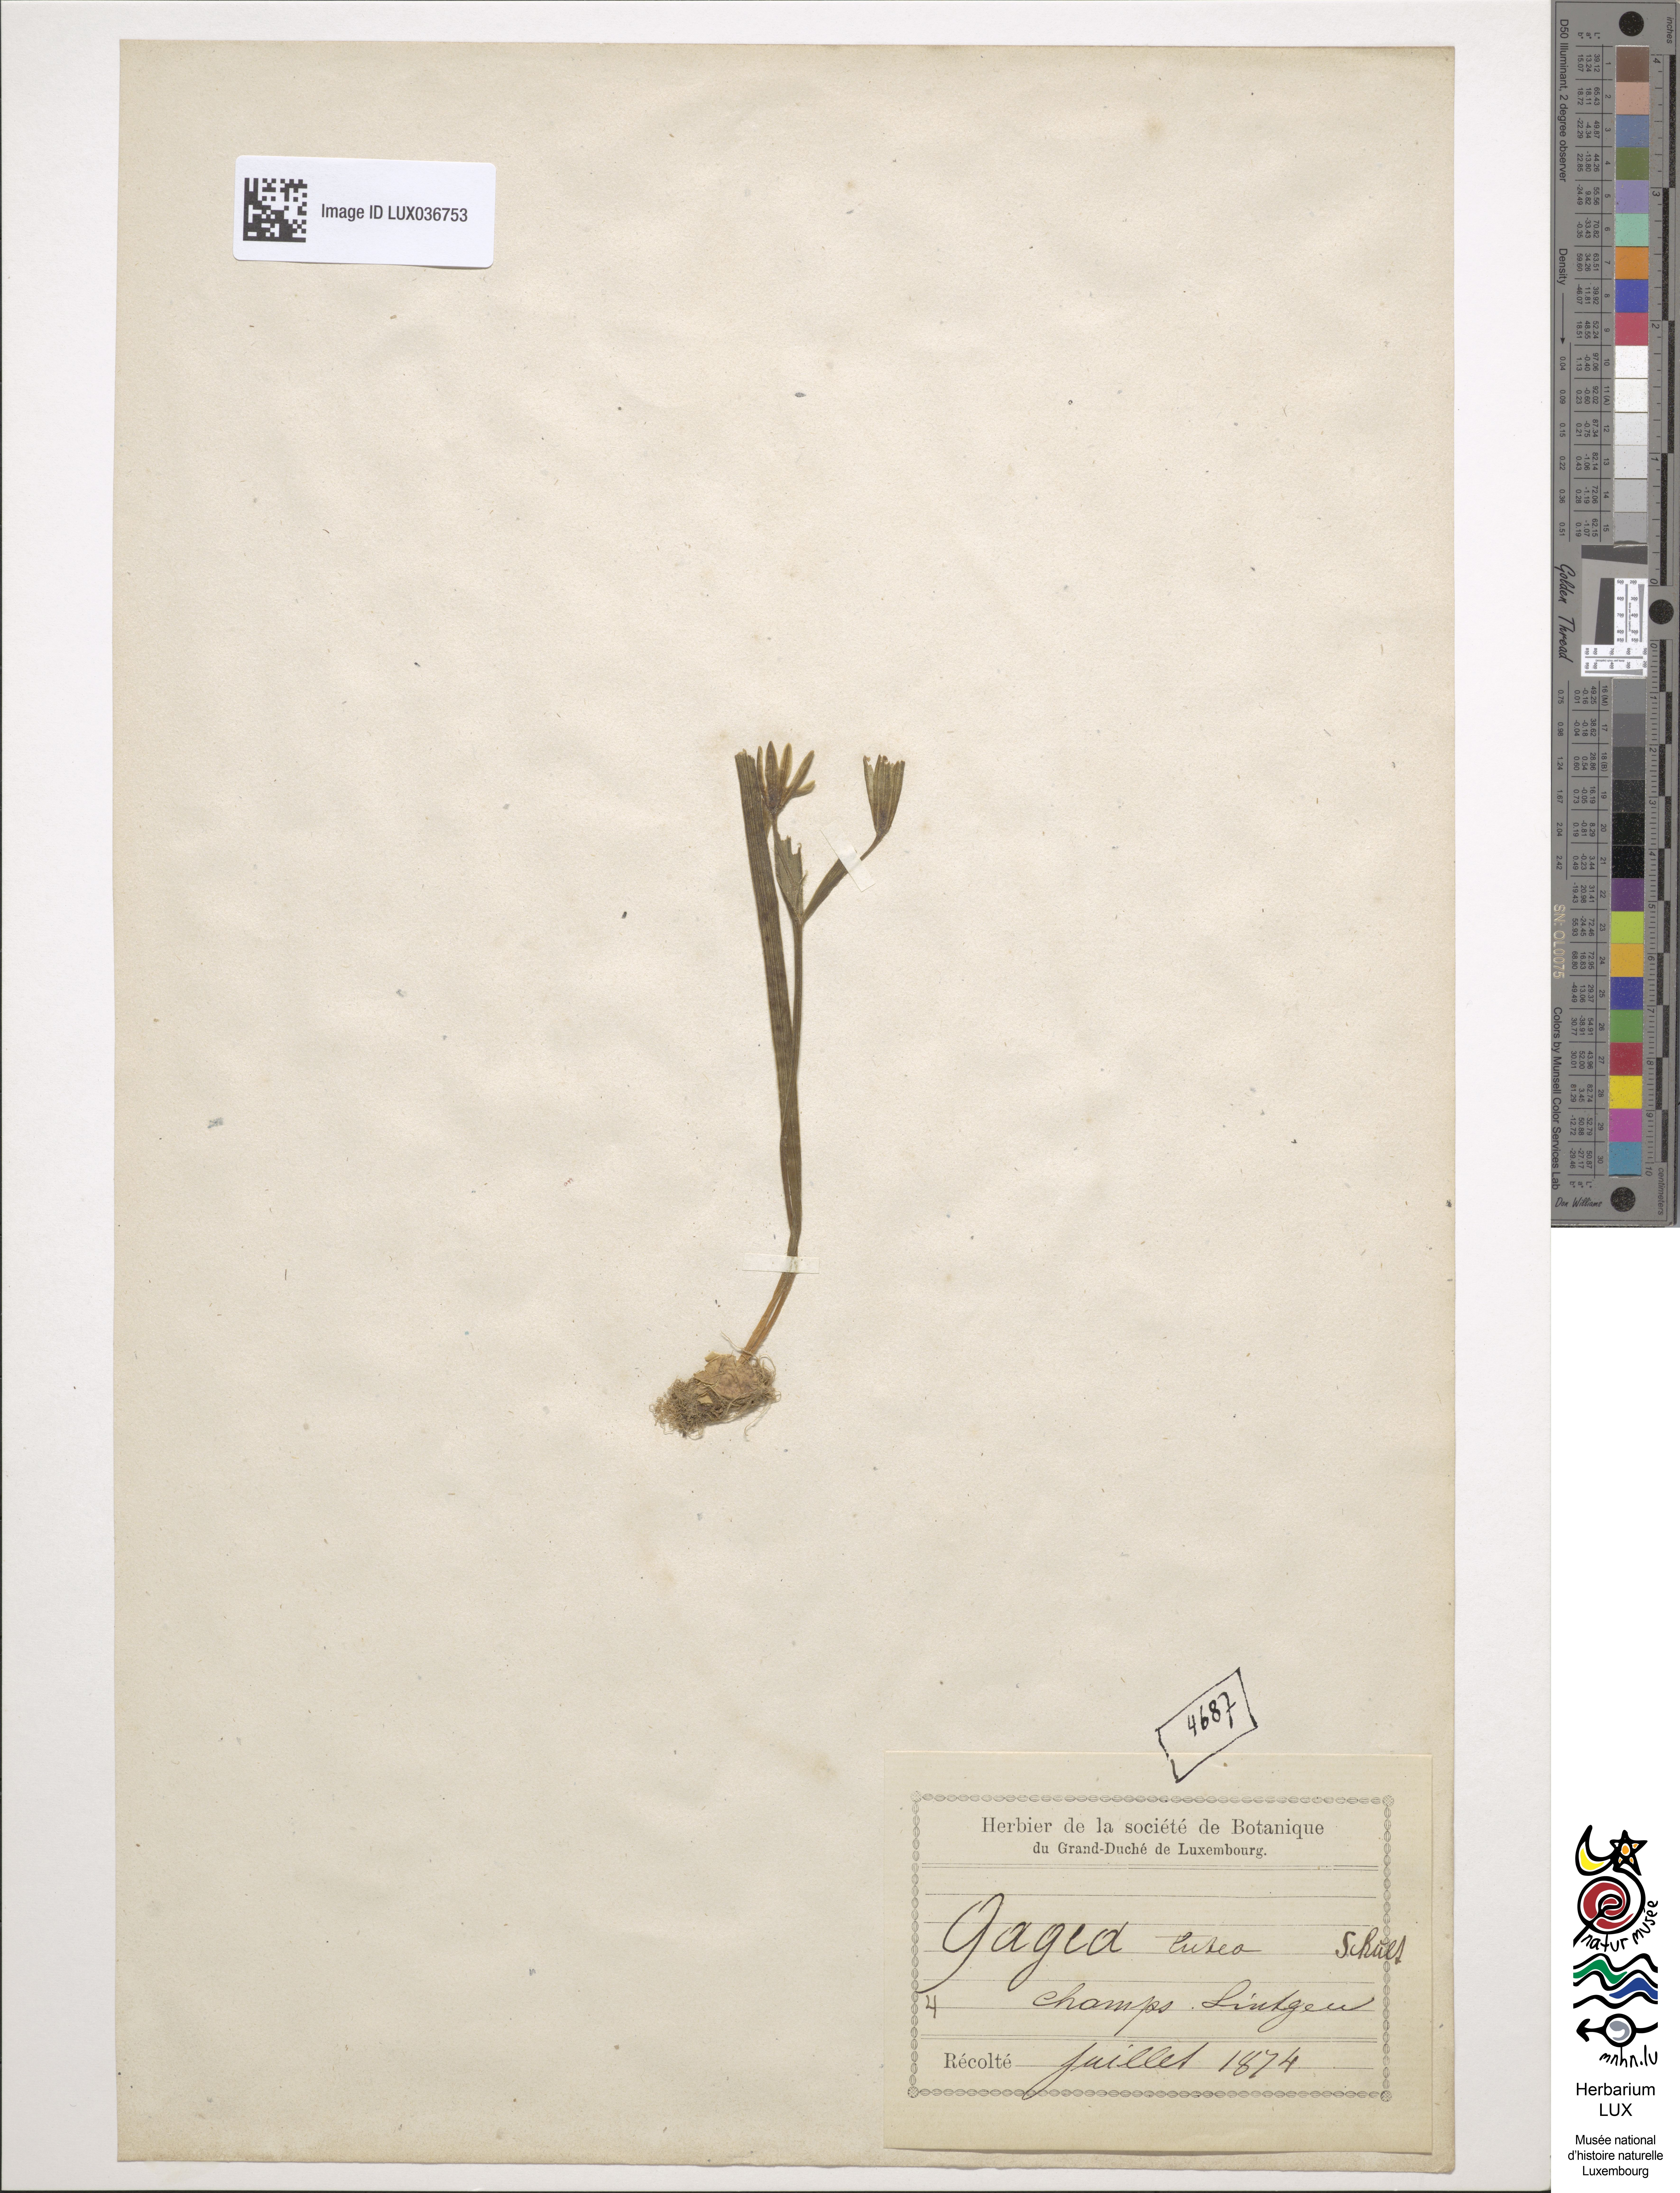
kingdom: Plantae
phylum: Tracheophyta
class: Liliopsida
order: Liliales
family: Liliaceae
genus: Gagea
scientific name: Gagea lutea
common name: Yellow star-of-bethlehem
